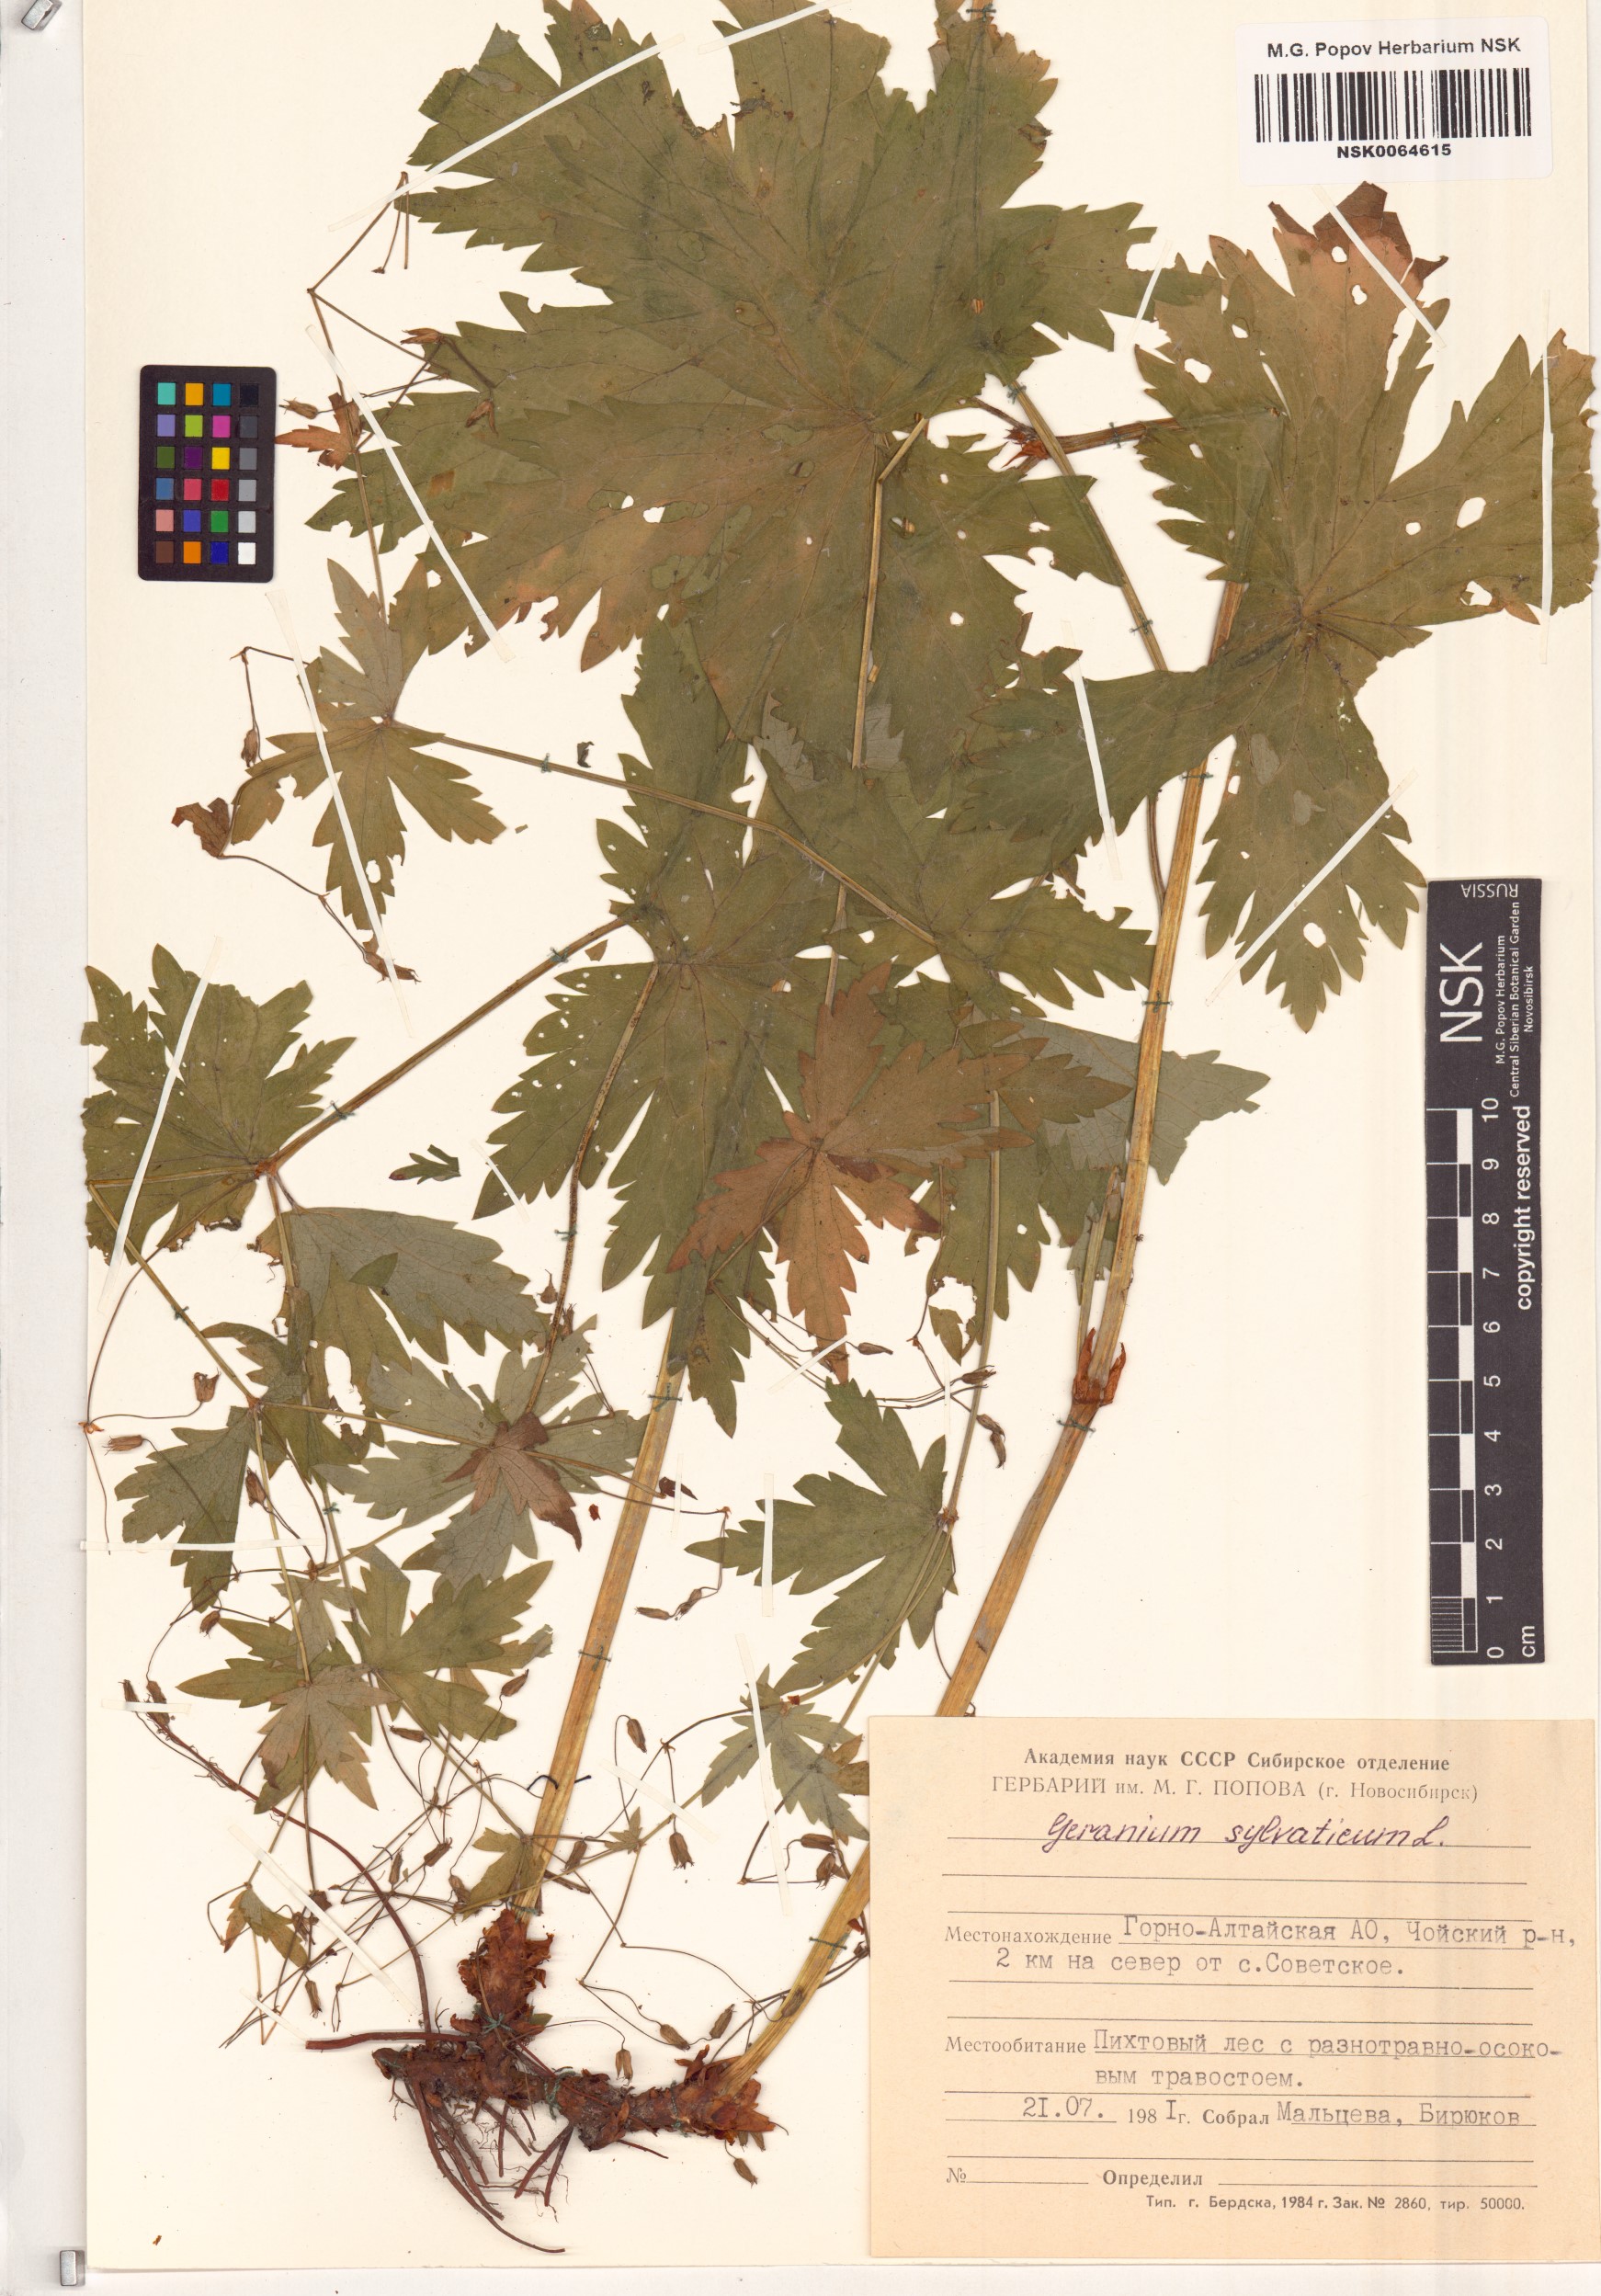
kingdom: Plantae
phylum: Tracheophyta
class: Magnoliopsida
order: Geraniales
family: Geraniaceae
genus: Geranium
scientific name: Geranium sylvaticum
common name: Wood crane's-bill
